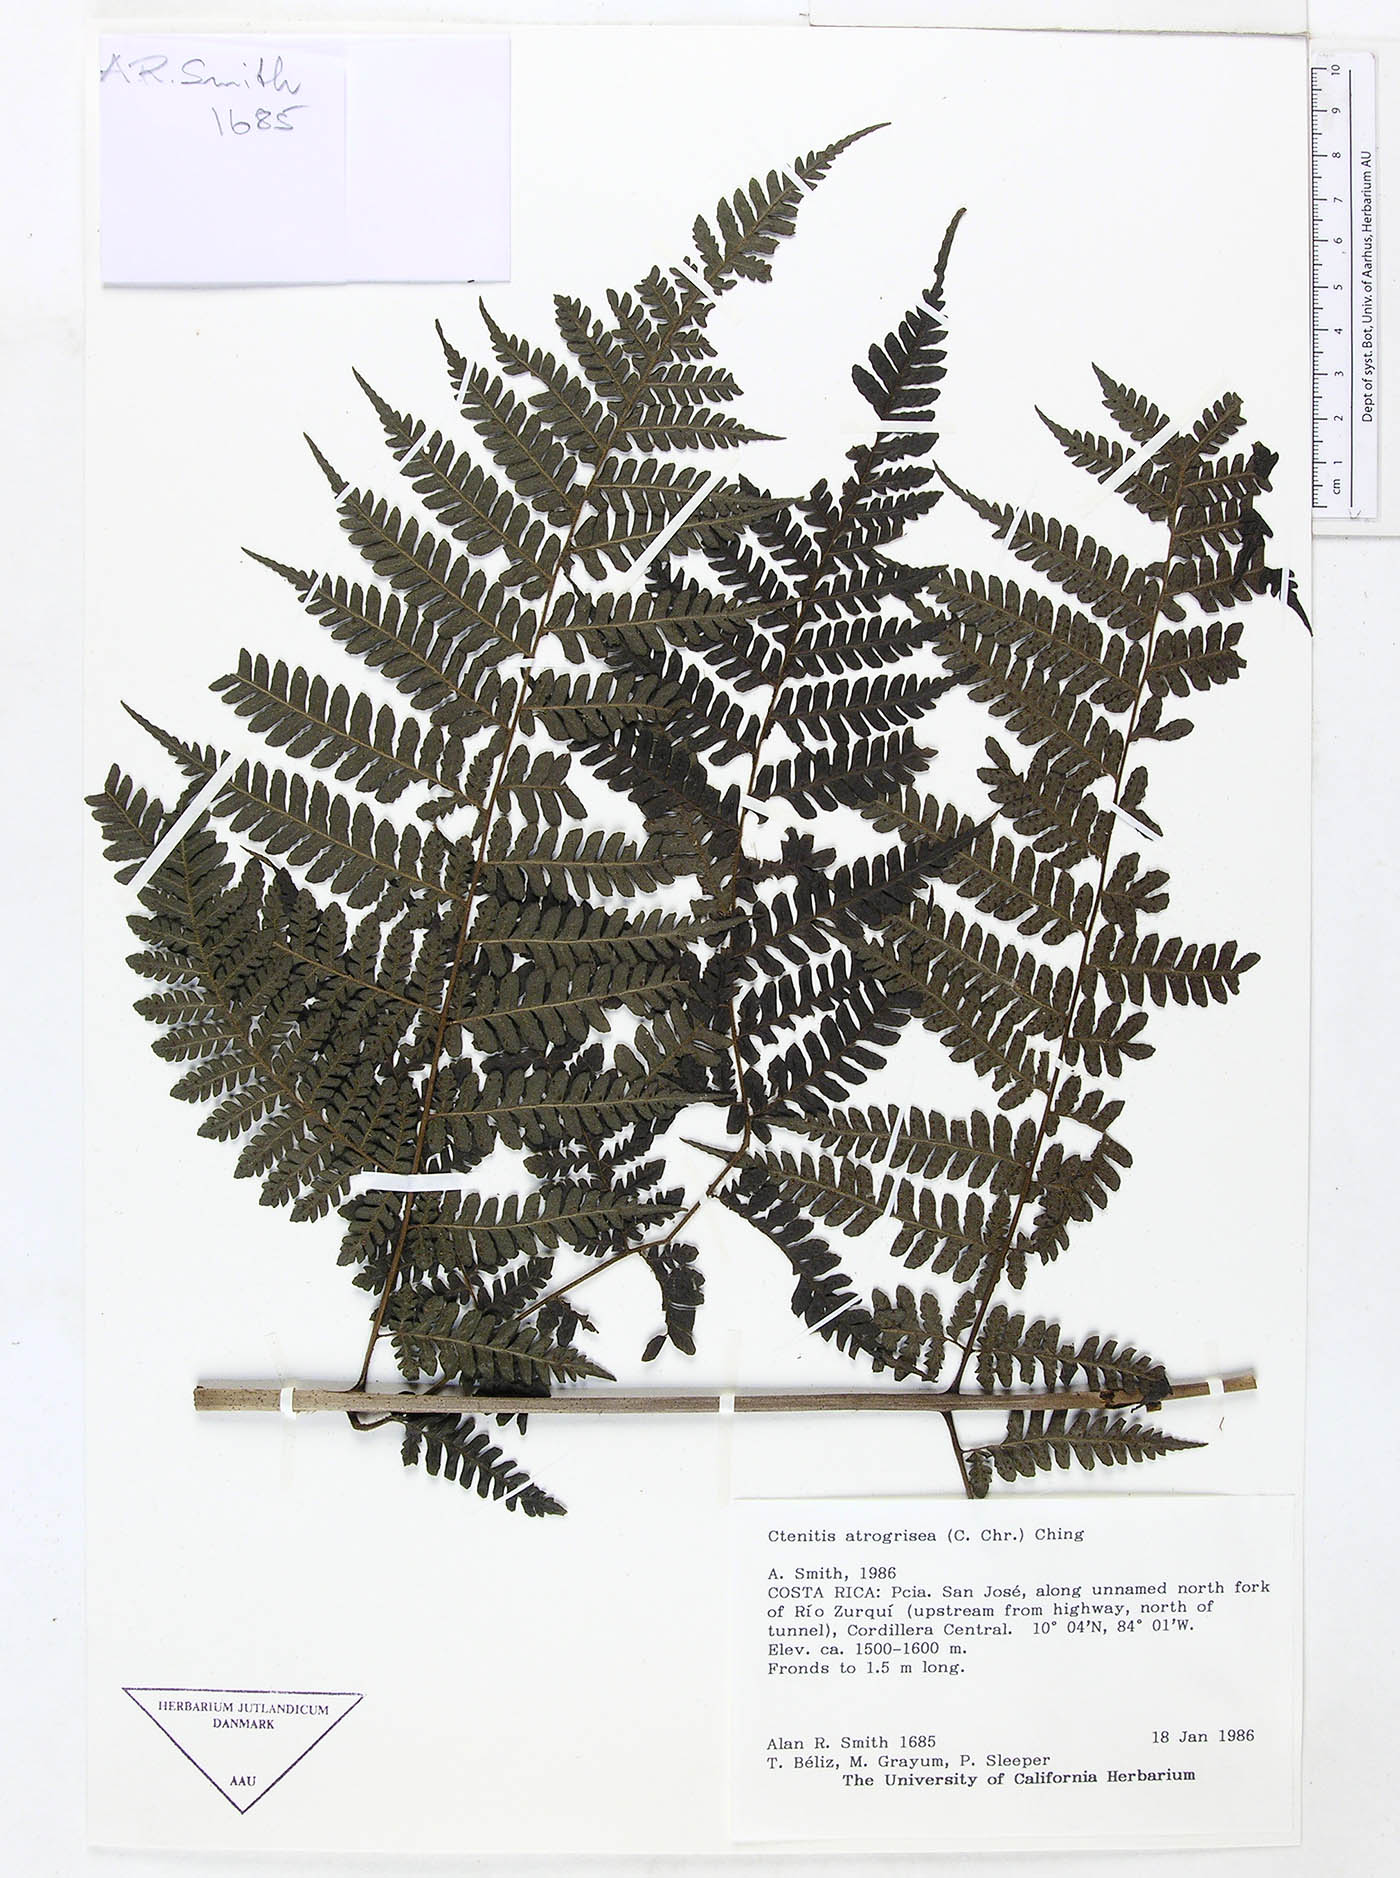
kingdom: Plantae
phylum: Tracheophyta
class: Polypodiopsida
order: Polypodiales
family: Dryopteridaceae
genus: Megalastrum
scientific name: Megalastrum atrogriseum
